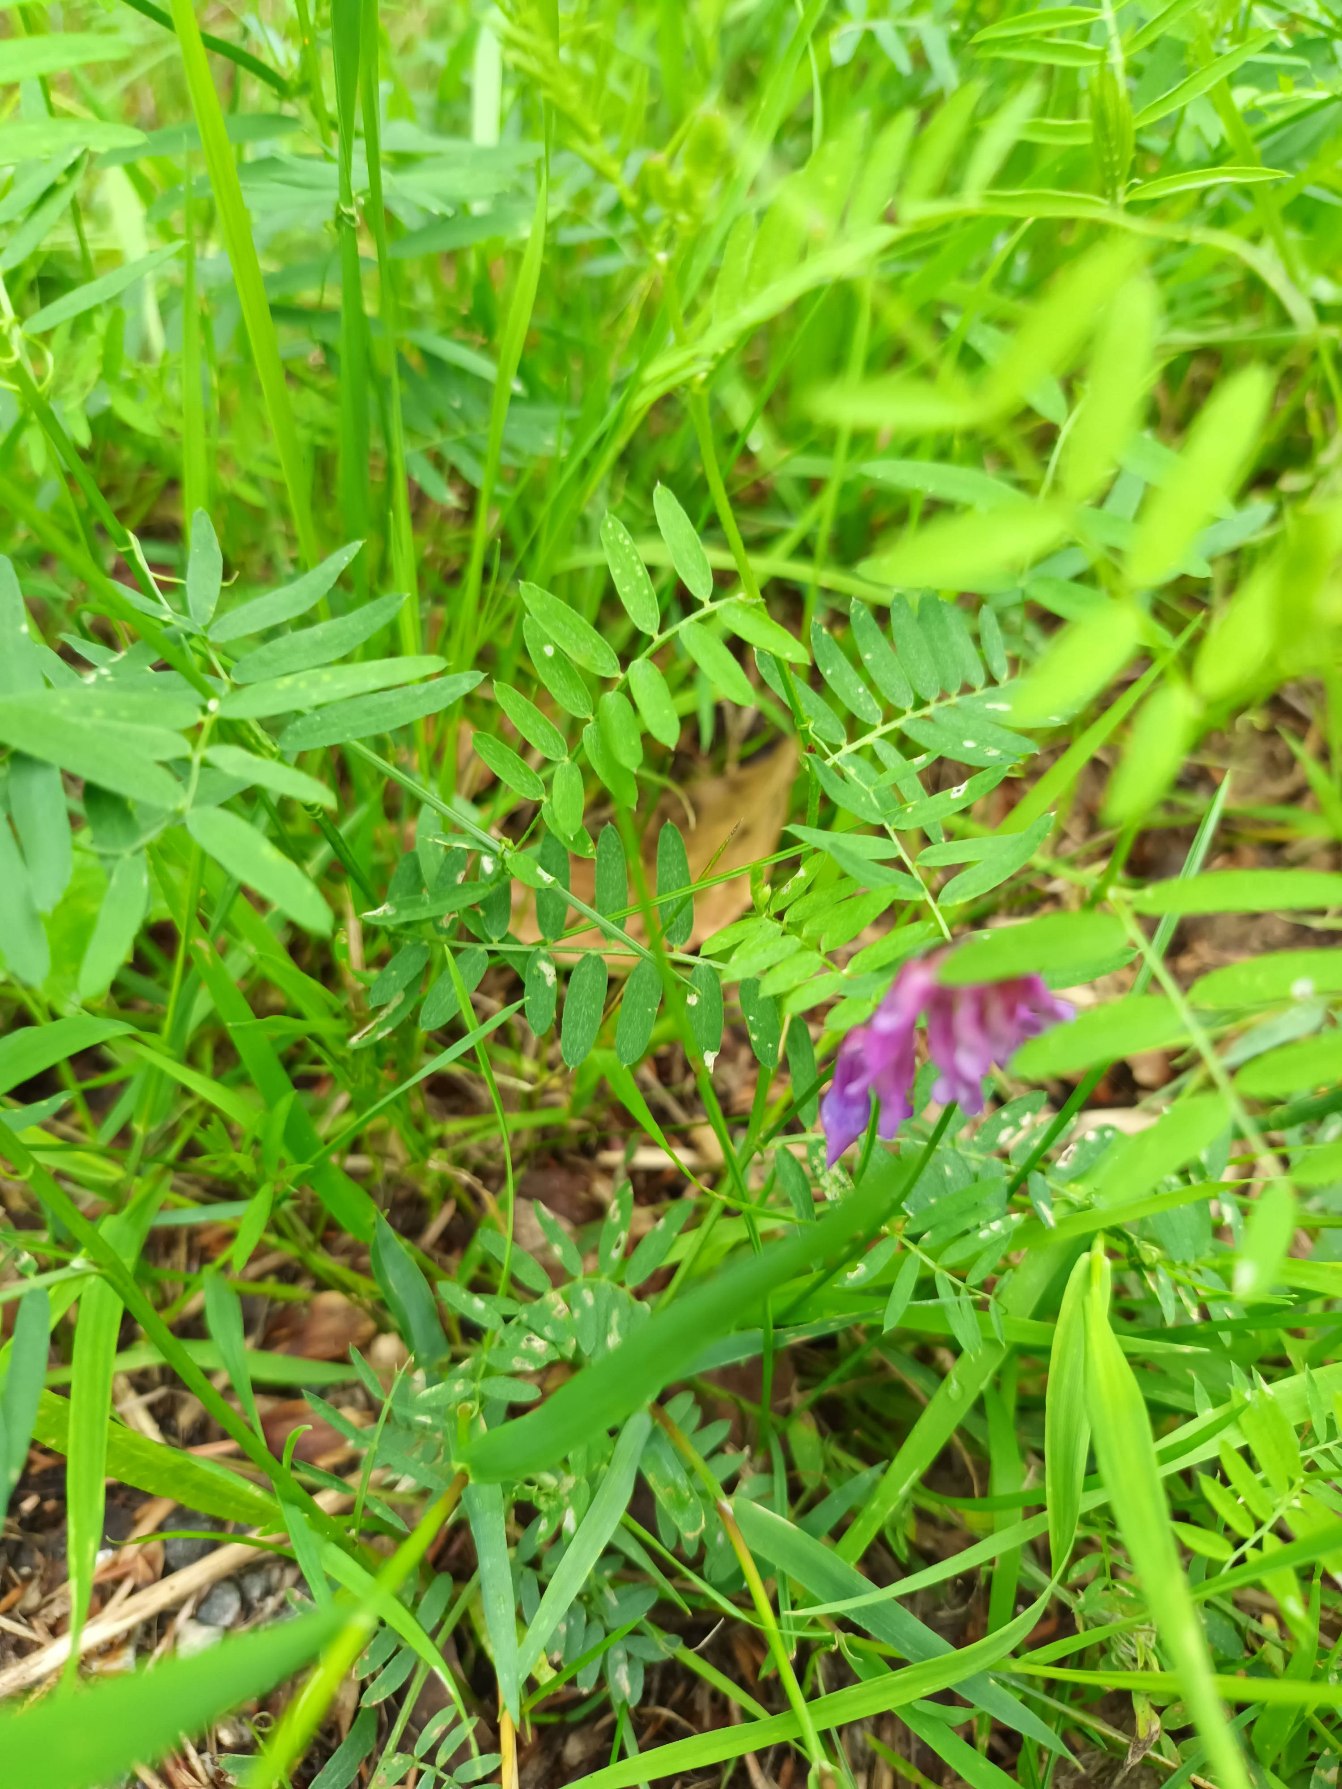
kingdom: Plantae
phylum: Tracheophyta
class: Magnoliopsida
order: Fabales
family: Fabaceae
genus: Vicia
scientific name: Vicia cracca
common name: Muse-vikke
